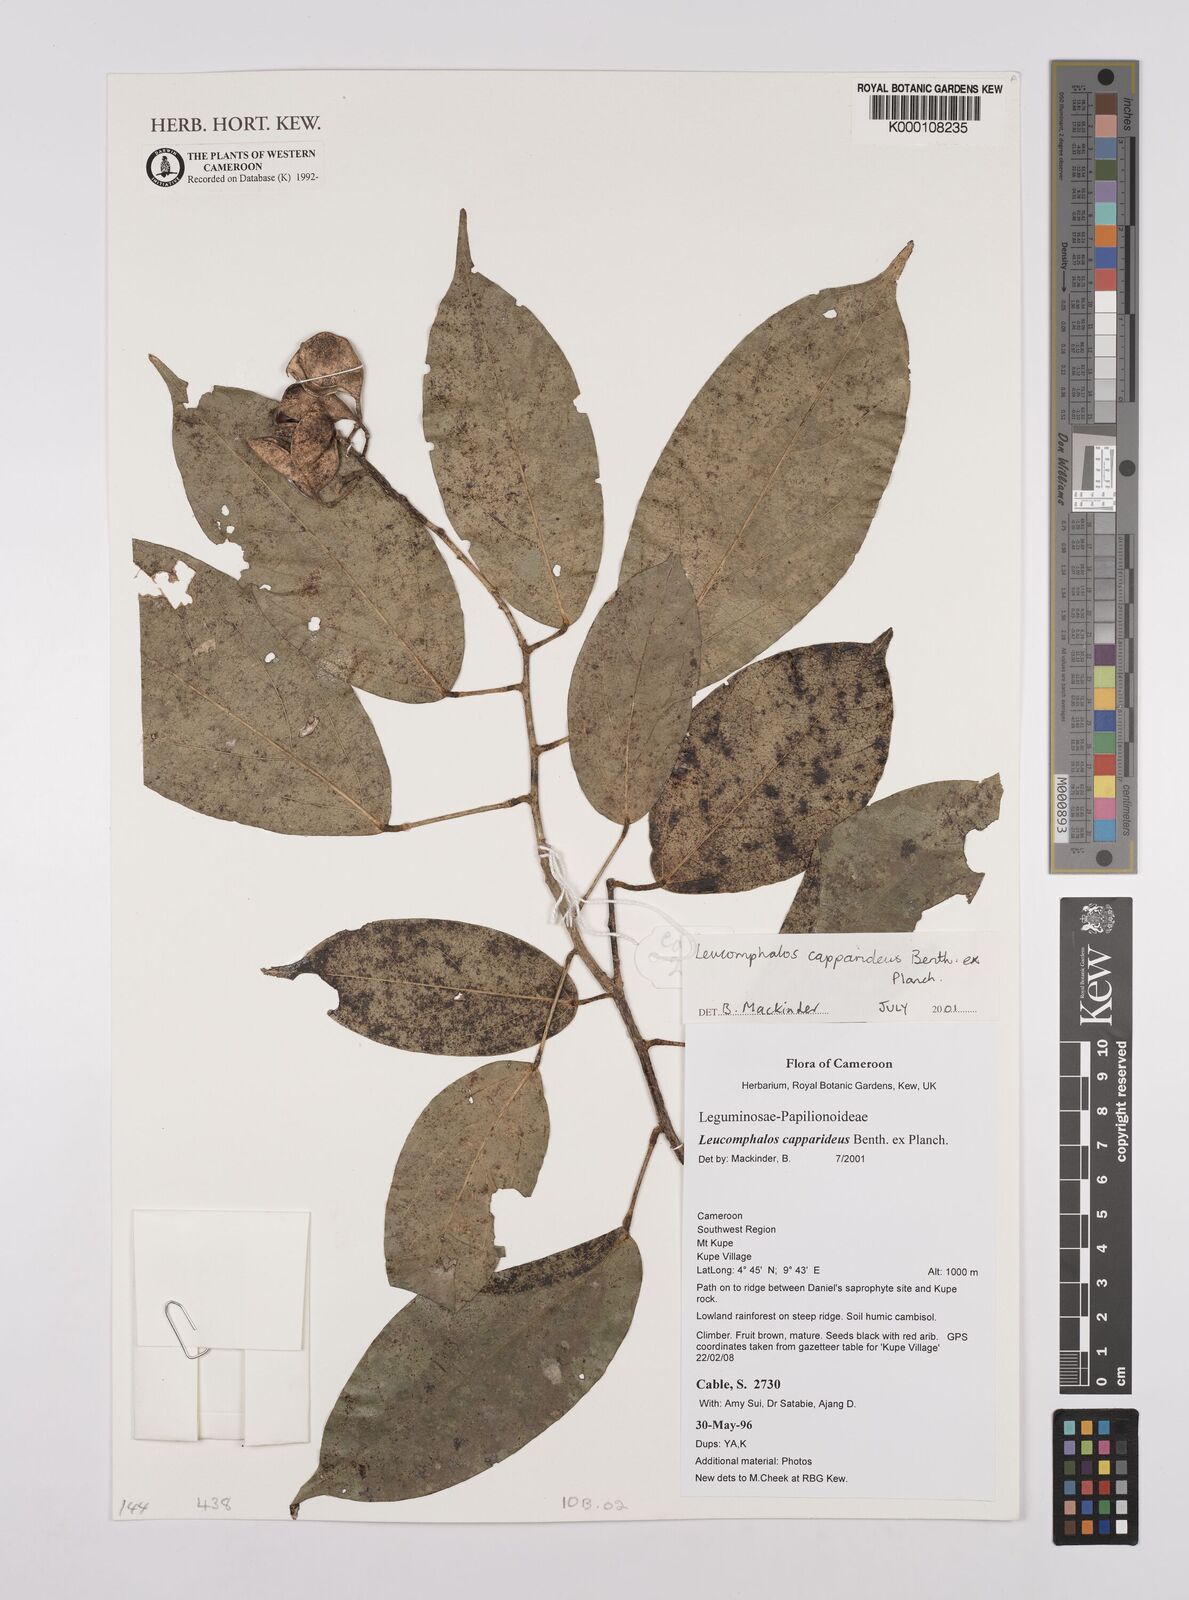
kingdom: Plantae
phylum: Tracheophyta
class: Magnoliopsida
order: Fabales
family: Fabaceae
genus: Leucomphalos
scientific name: Leucomphalos
